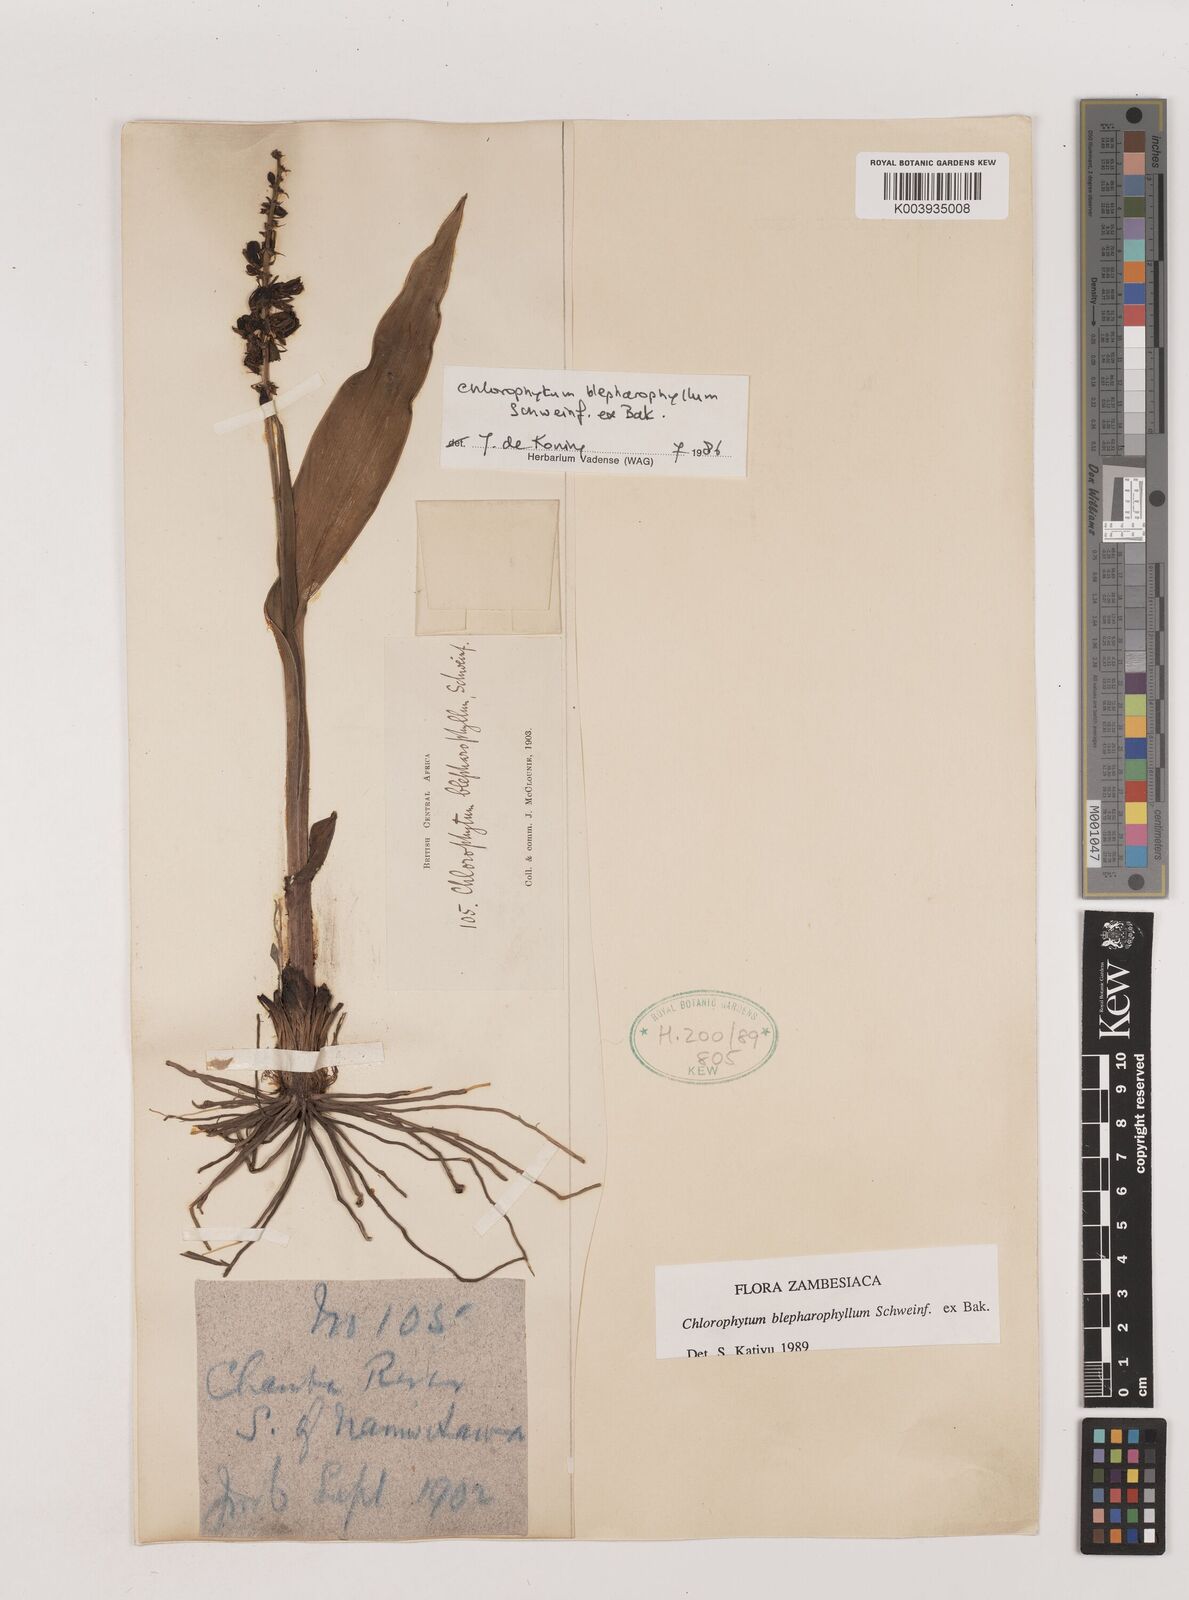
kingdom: Plantae
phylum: Tracheophyta
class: Liliopsida
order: Asparagales
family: Asparagaceae
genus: Chlorophytum
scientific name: Chlorophytum blepharophyllum
